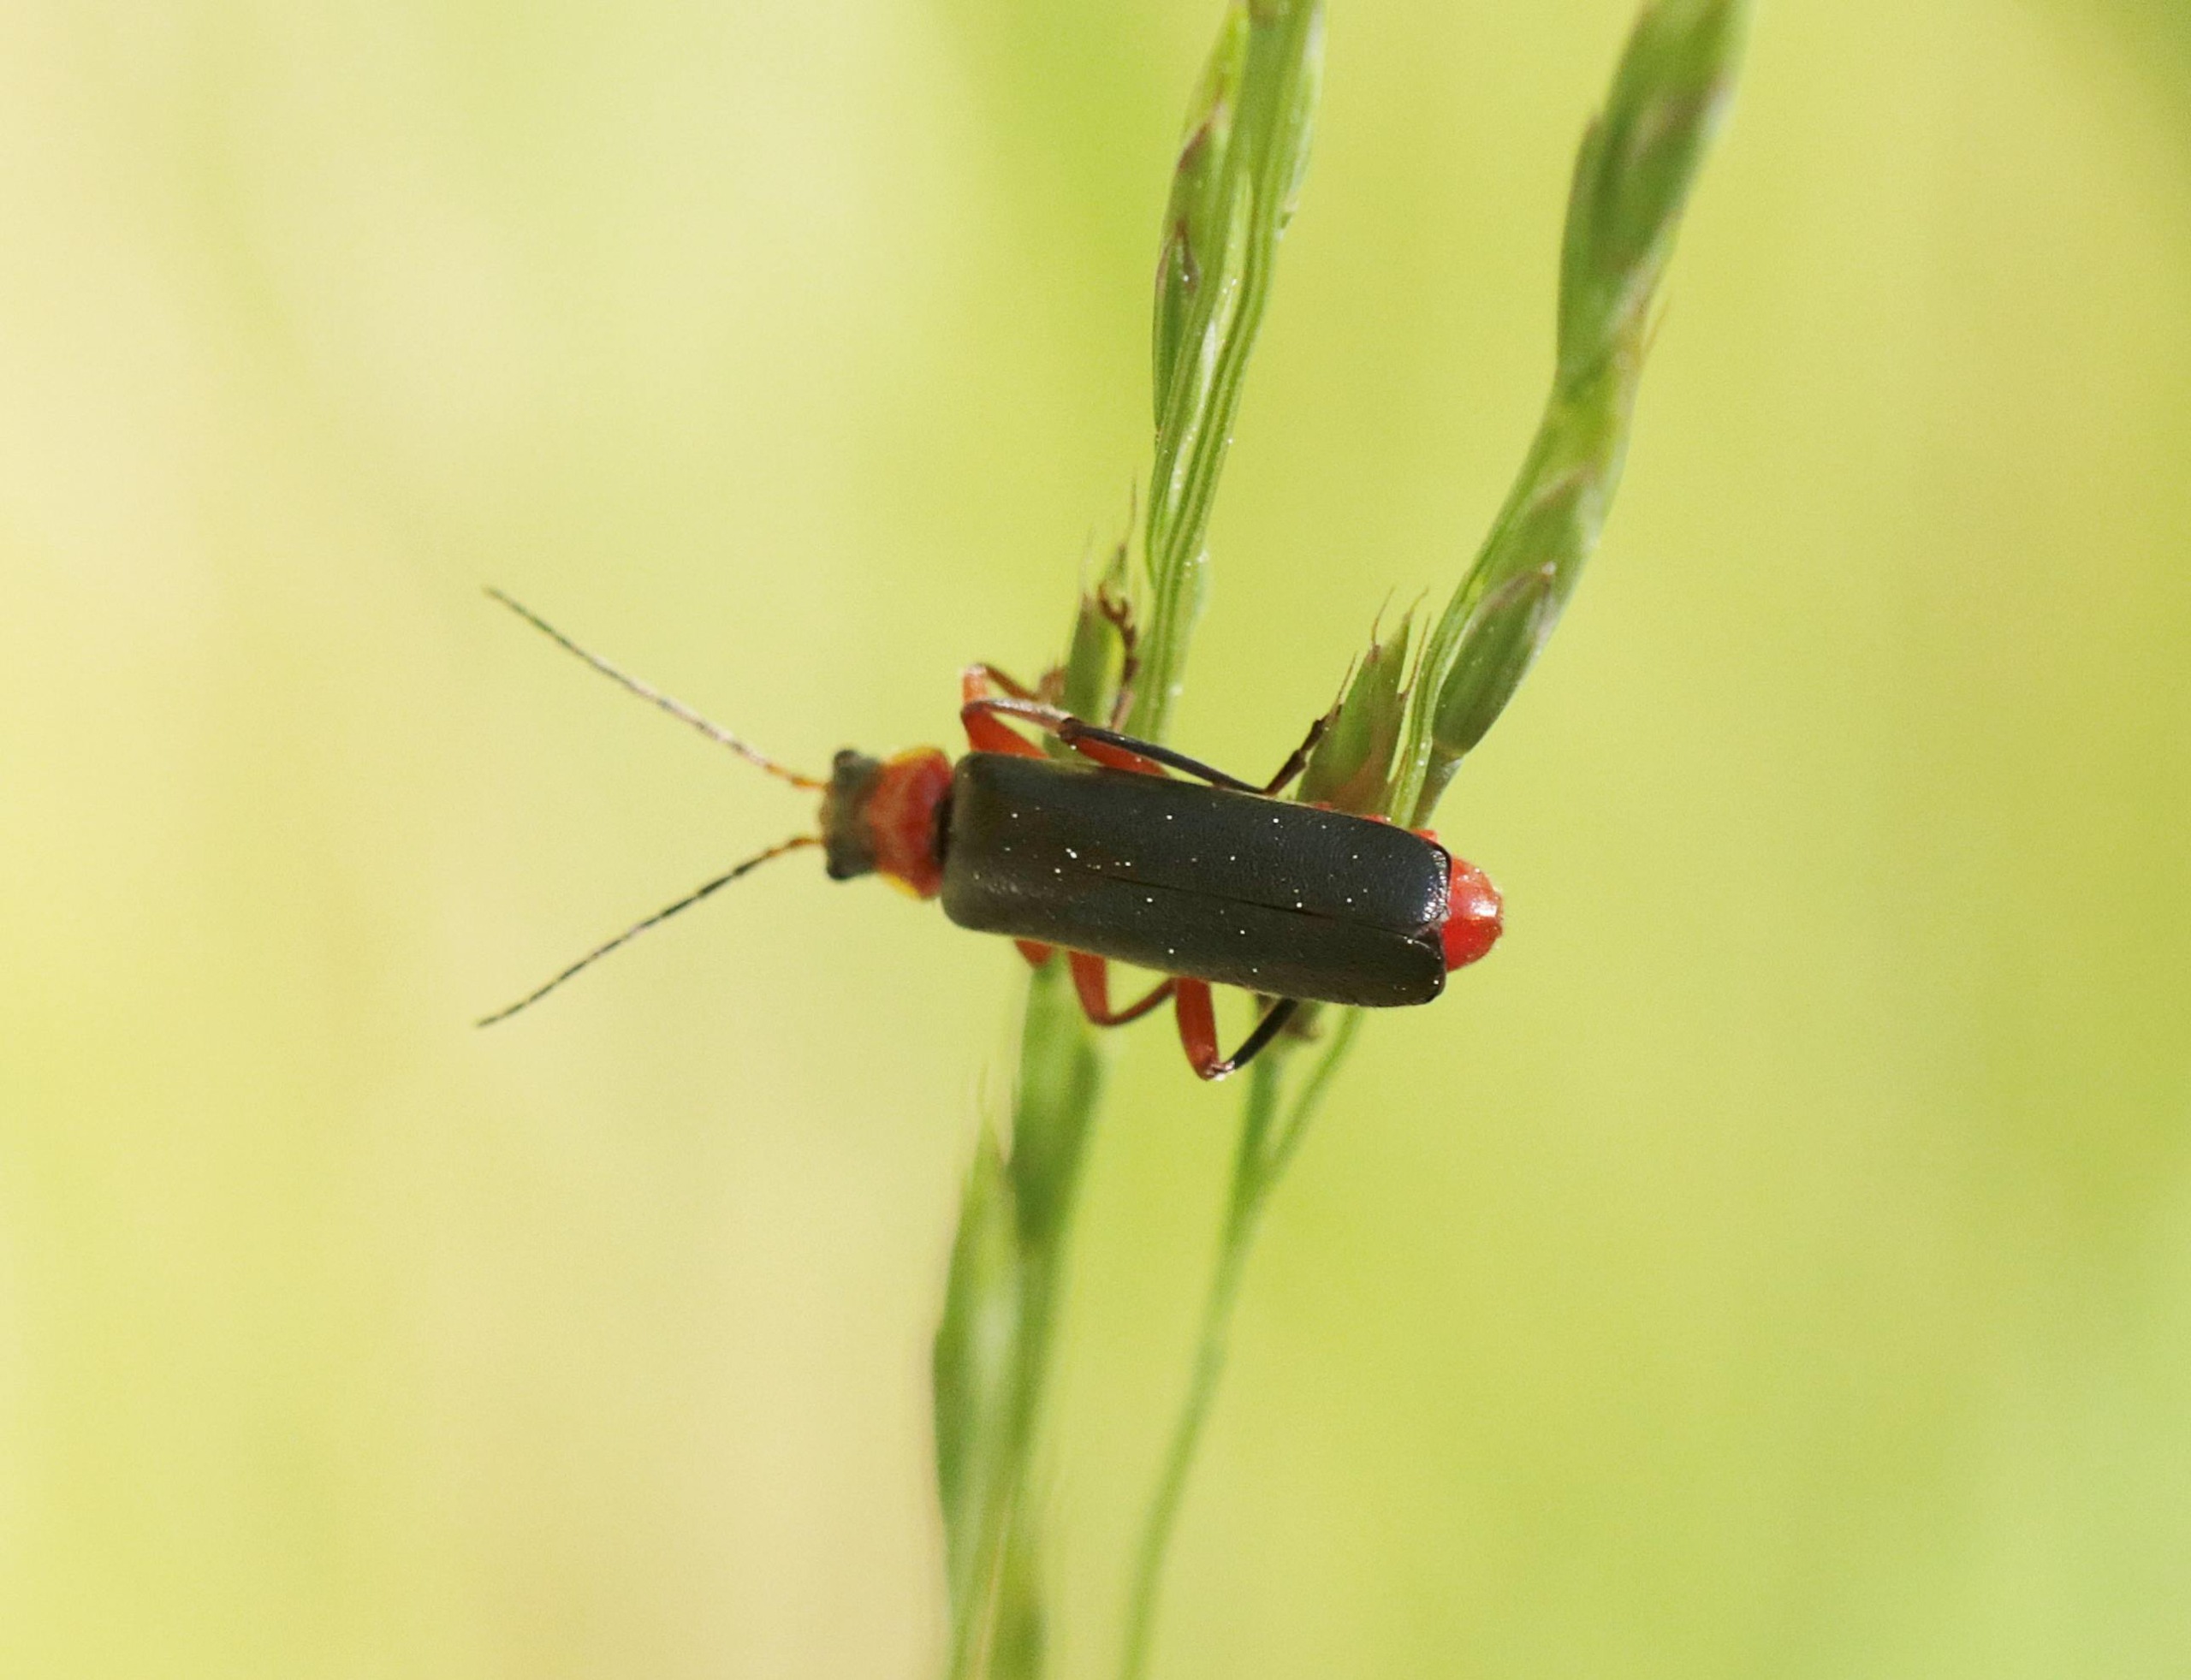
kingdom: Animalia
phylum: Arthropoda
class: Insecta
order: Coleoptera
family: Cantharidae
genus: Cantharis
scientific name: Cantharis pellucida
